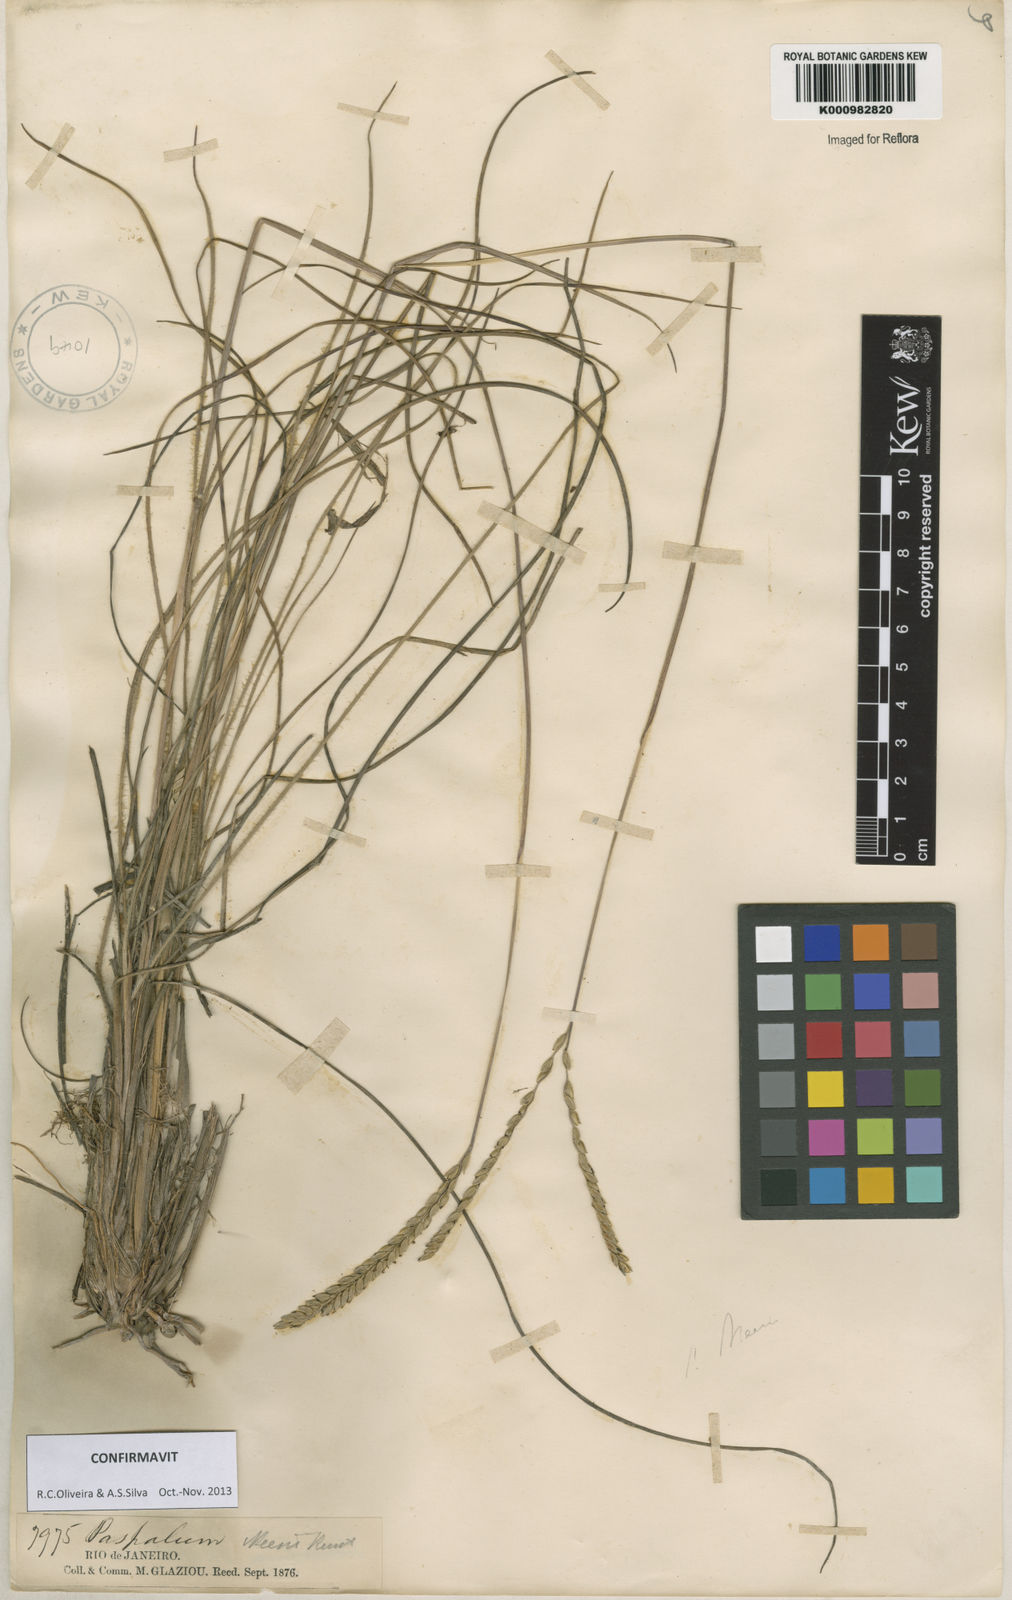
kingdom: Plantae
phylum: Tracheophyta
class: Liliopsida
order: Poales
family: Poaceae
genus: Paspalum
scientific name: Paspalum lineare
